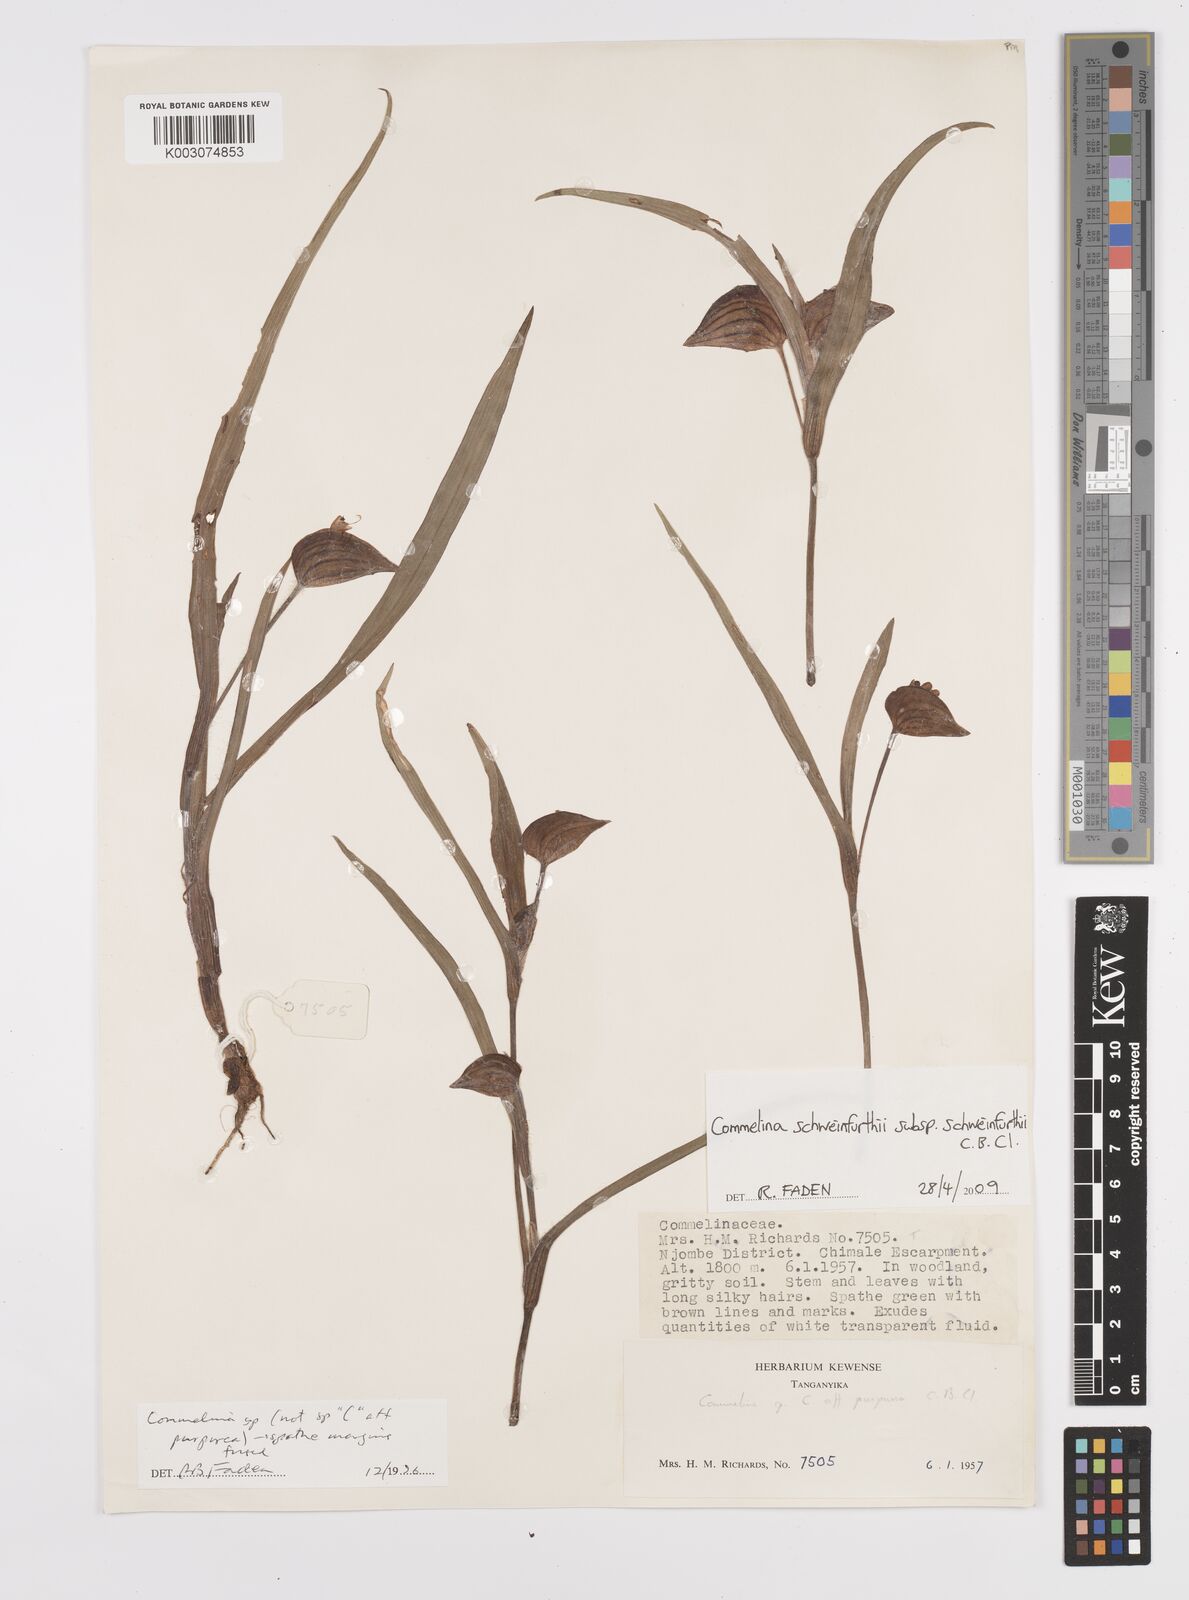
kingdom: Plantae
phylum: Tracheophyta
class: Liliopsida
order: Commelinales
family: Commelinaceae
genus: Commelina
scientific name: Commelina schweinfurthii
